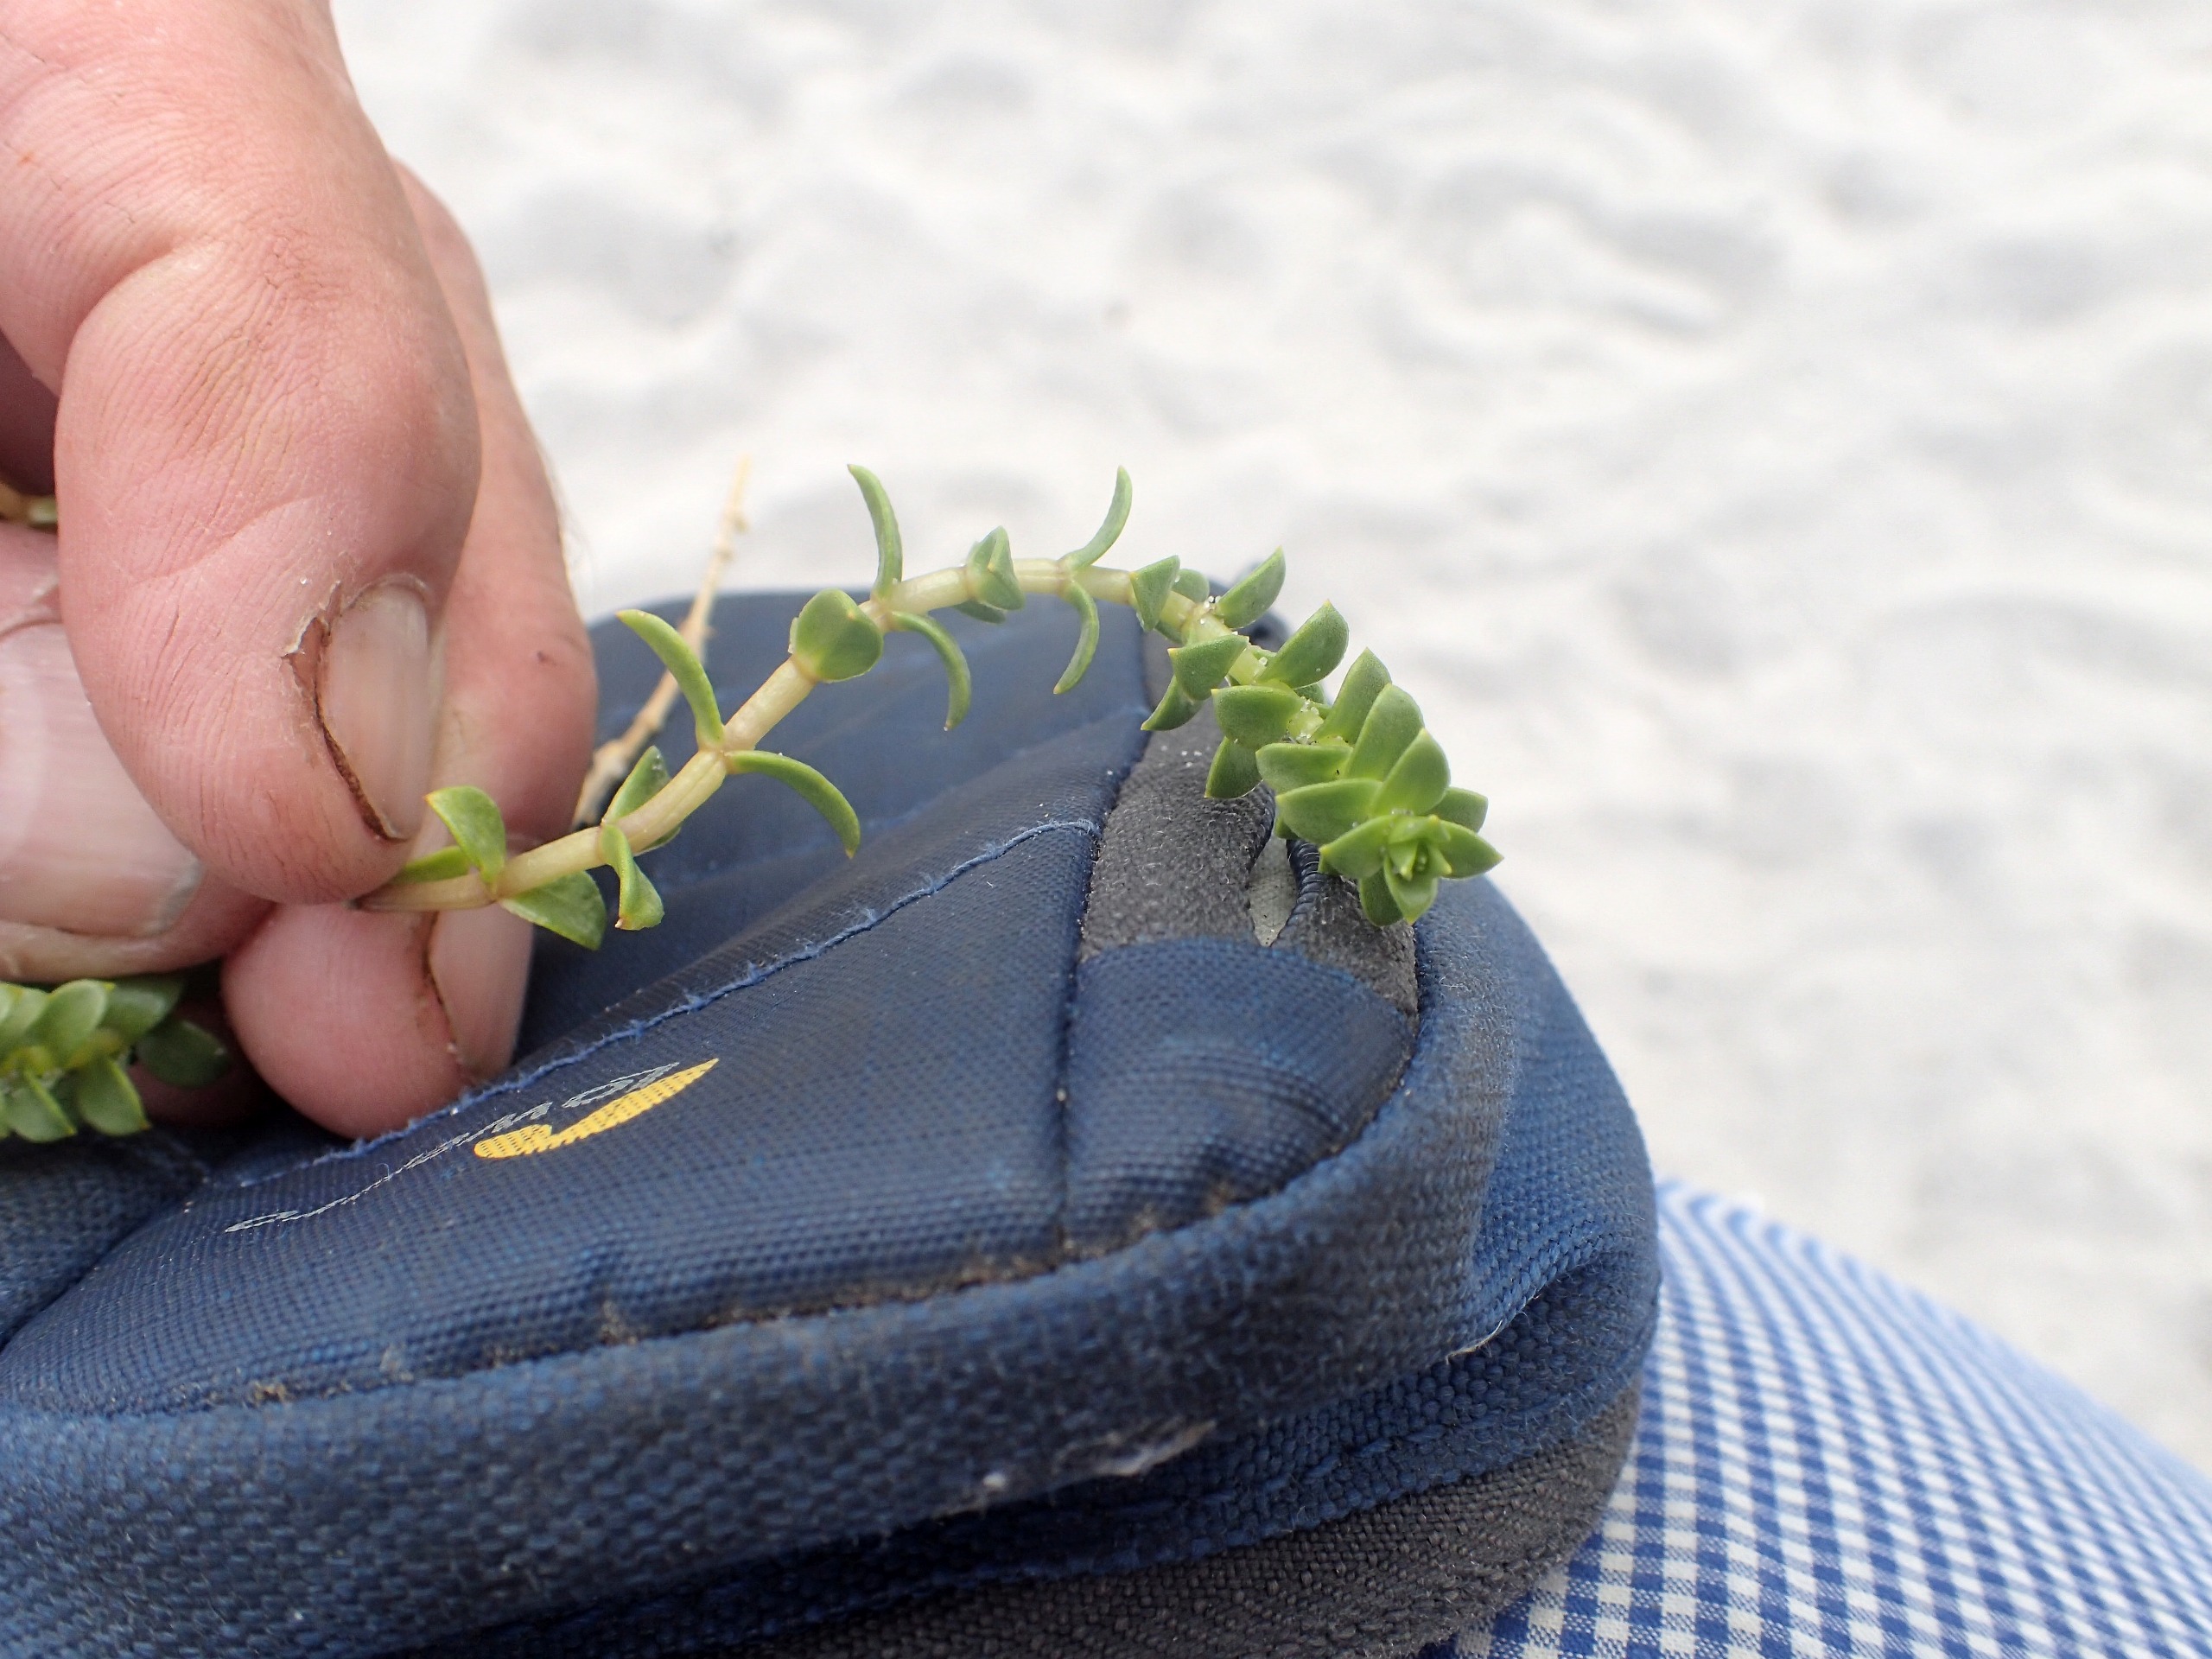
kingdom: Plantae
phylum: Tracheophyta
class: Magnoliopsida
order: Caryophyllales
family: Caryophyllaceae
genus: Honckenya
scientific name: Honckenya peploides
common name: Strandarve
